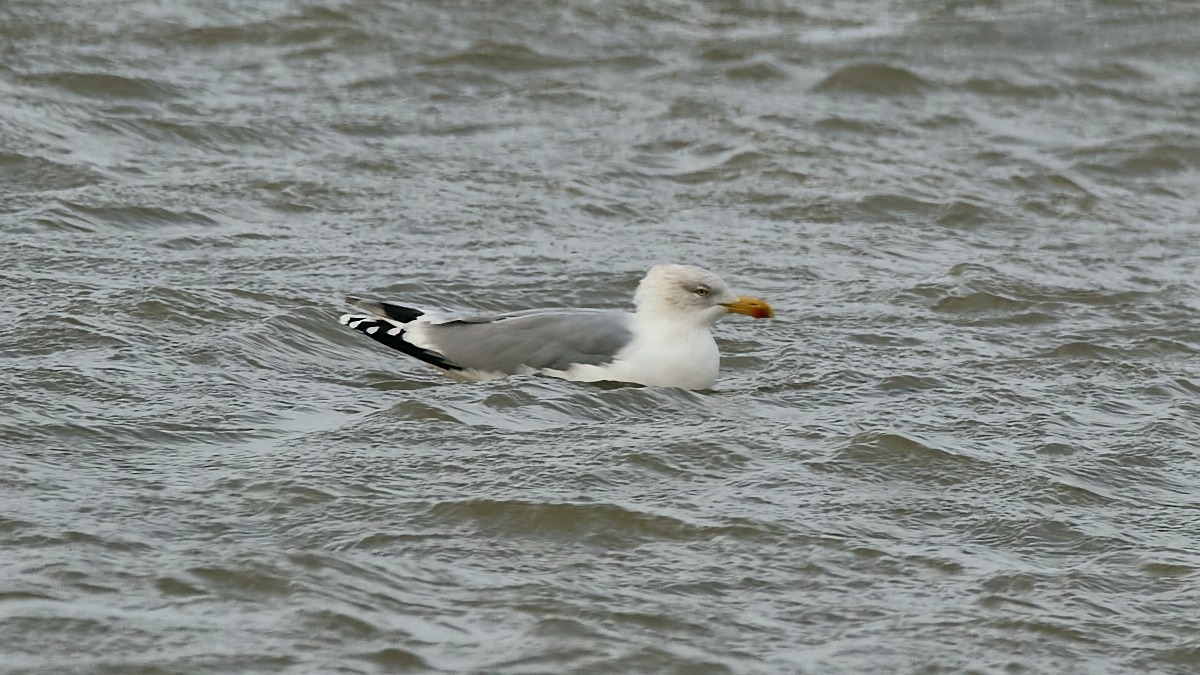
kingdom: Animalia
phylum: Chordata
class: Aves
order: Charadriiformes
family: Laridae
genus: Larus
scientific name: Larus argentatus
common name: Sølvmåge
